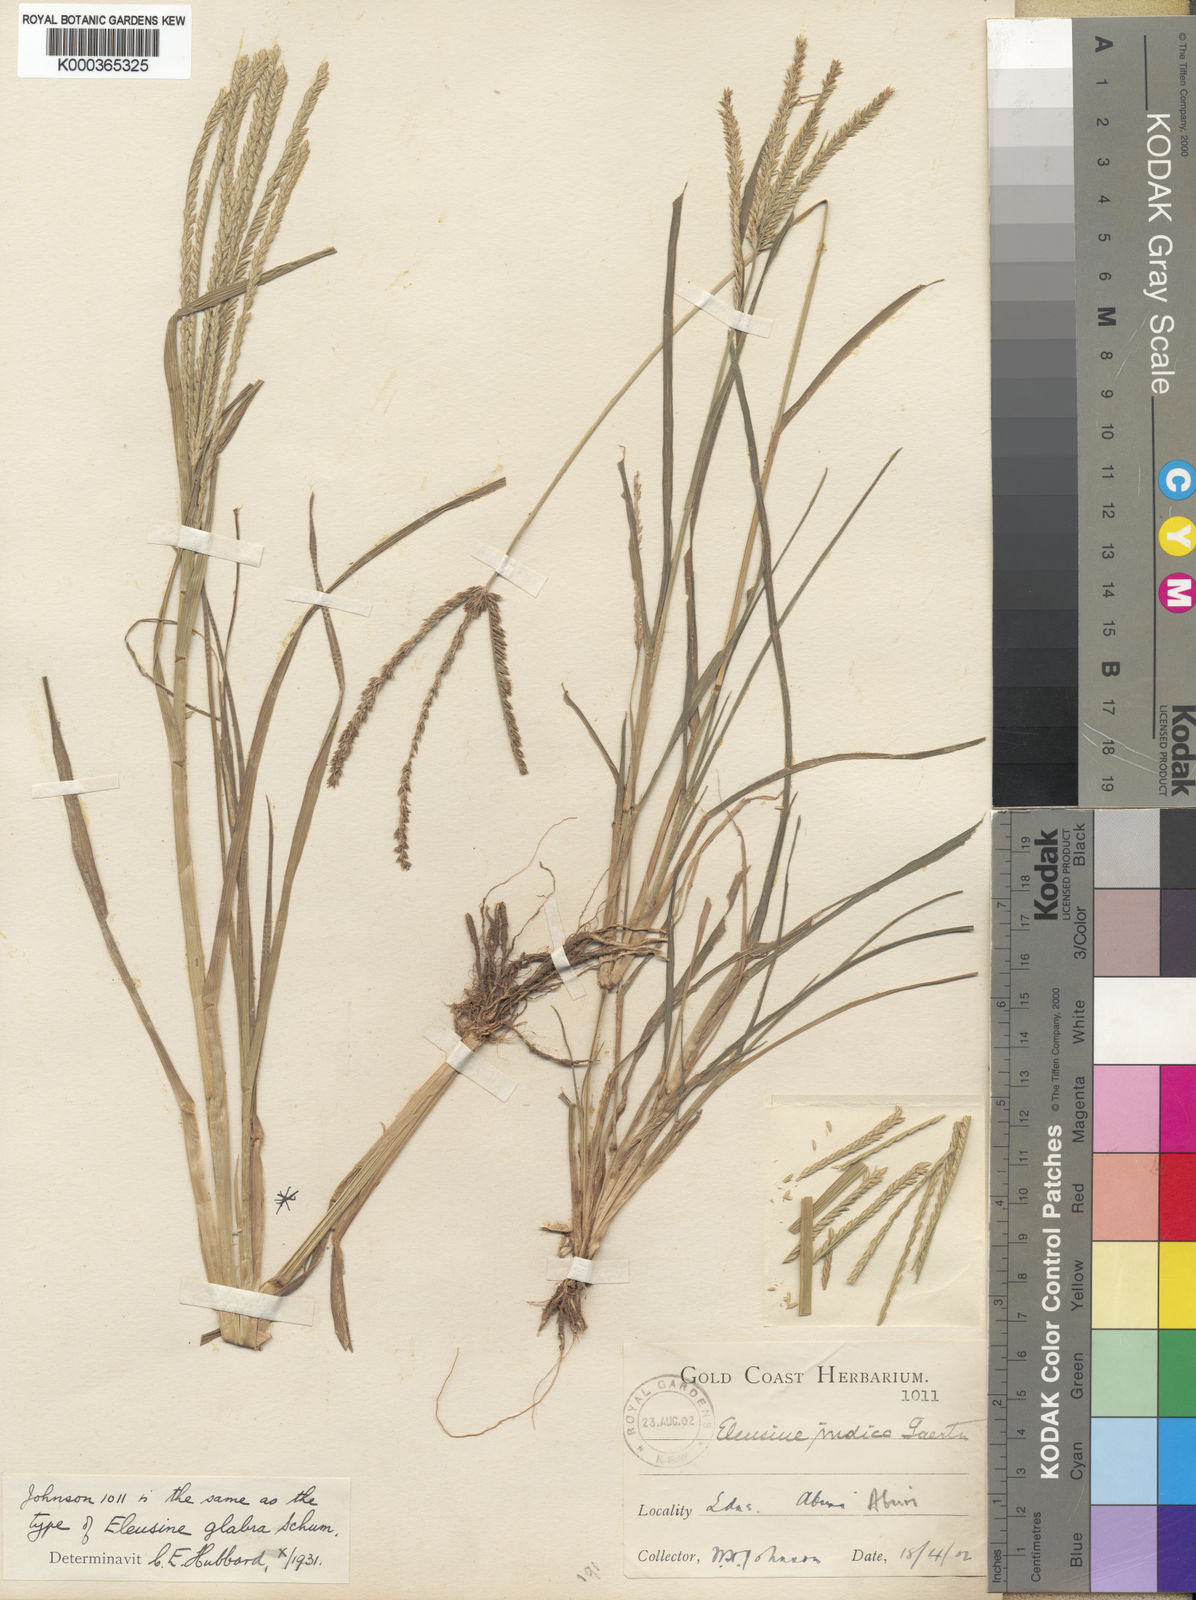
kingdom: Plantae
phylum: Tracheophyta
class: Liliopsida
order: Poales
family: Poaceae
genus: Eleusine
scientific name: Eleusine
